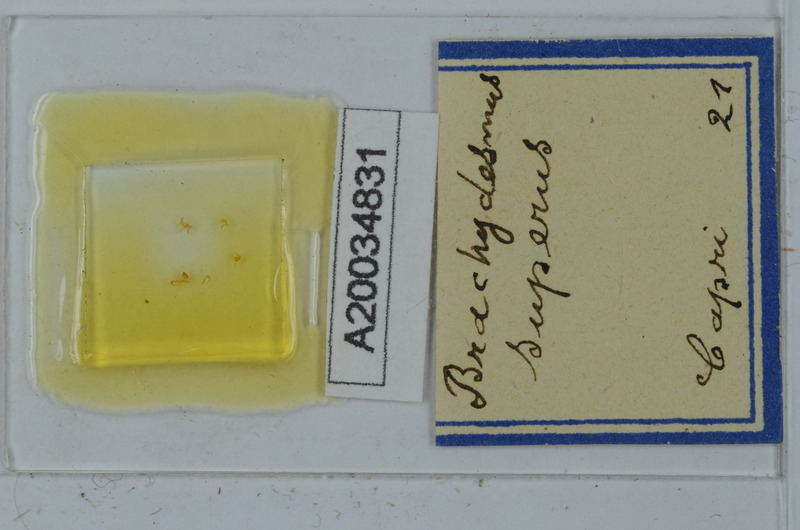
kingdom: Animalia
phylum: Arthropoda
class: Diplopoda
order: Polydesmida
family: Polydesmidae
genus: Brachydesmus
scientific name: Brachydesmus superus
